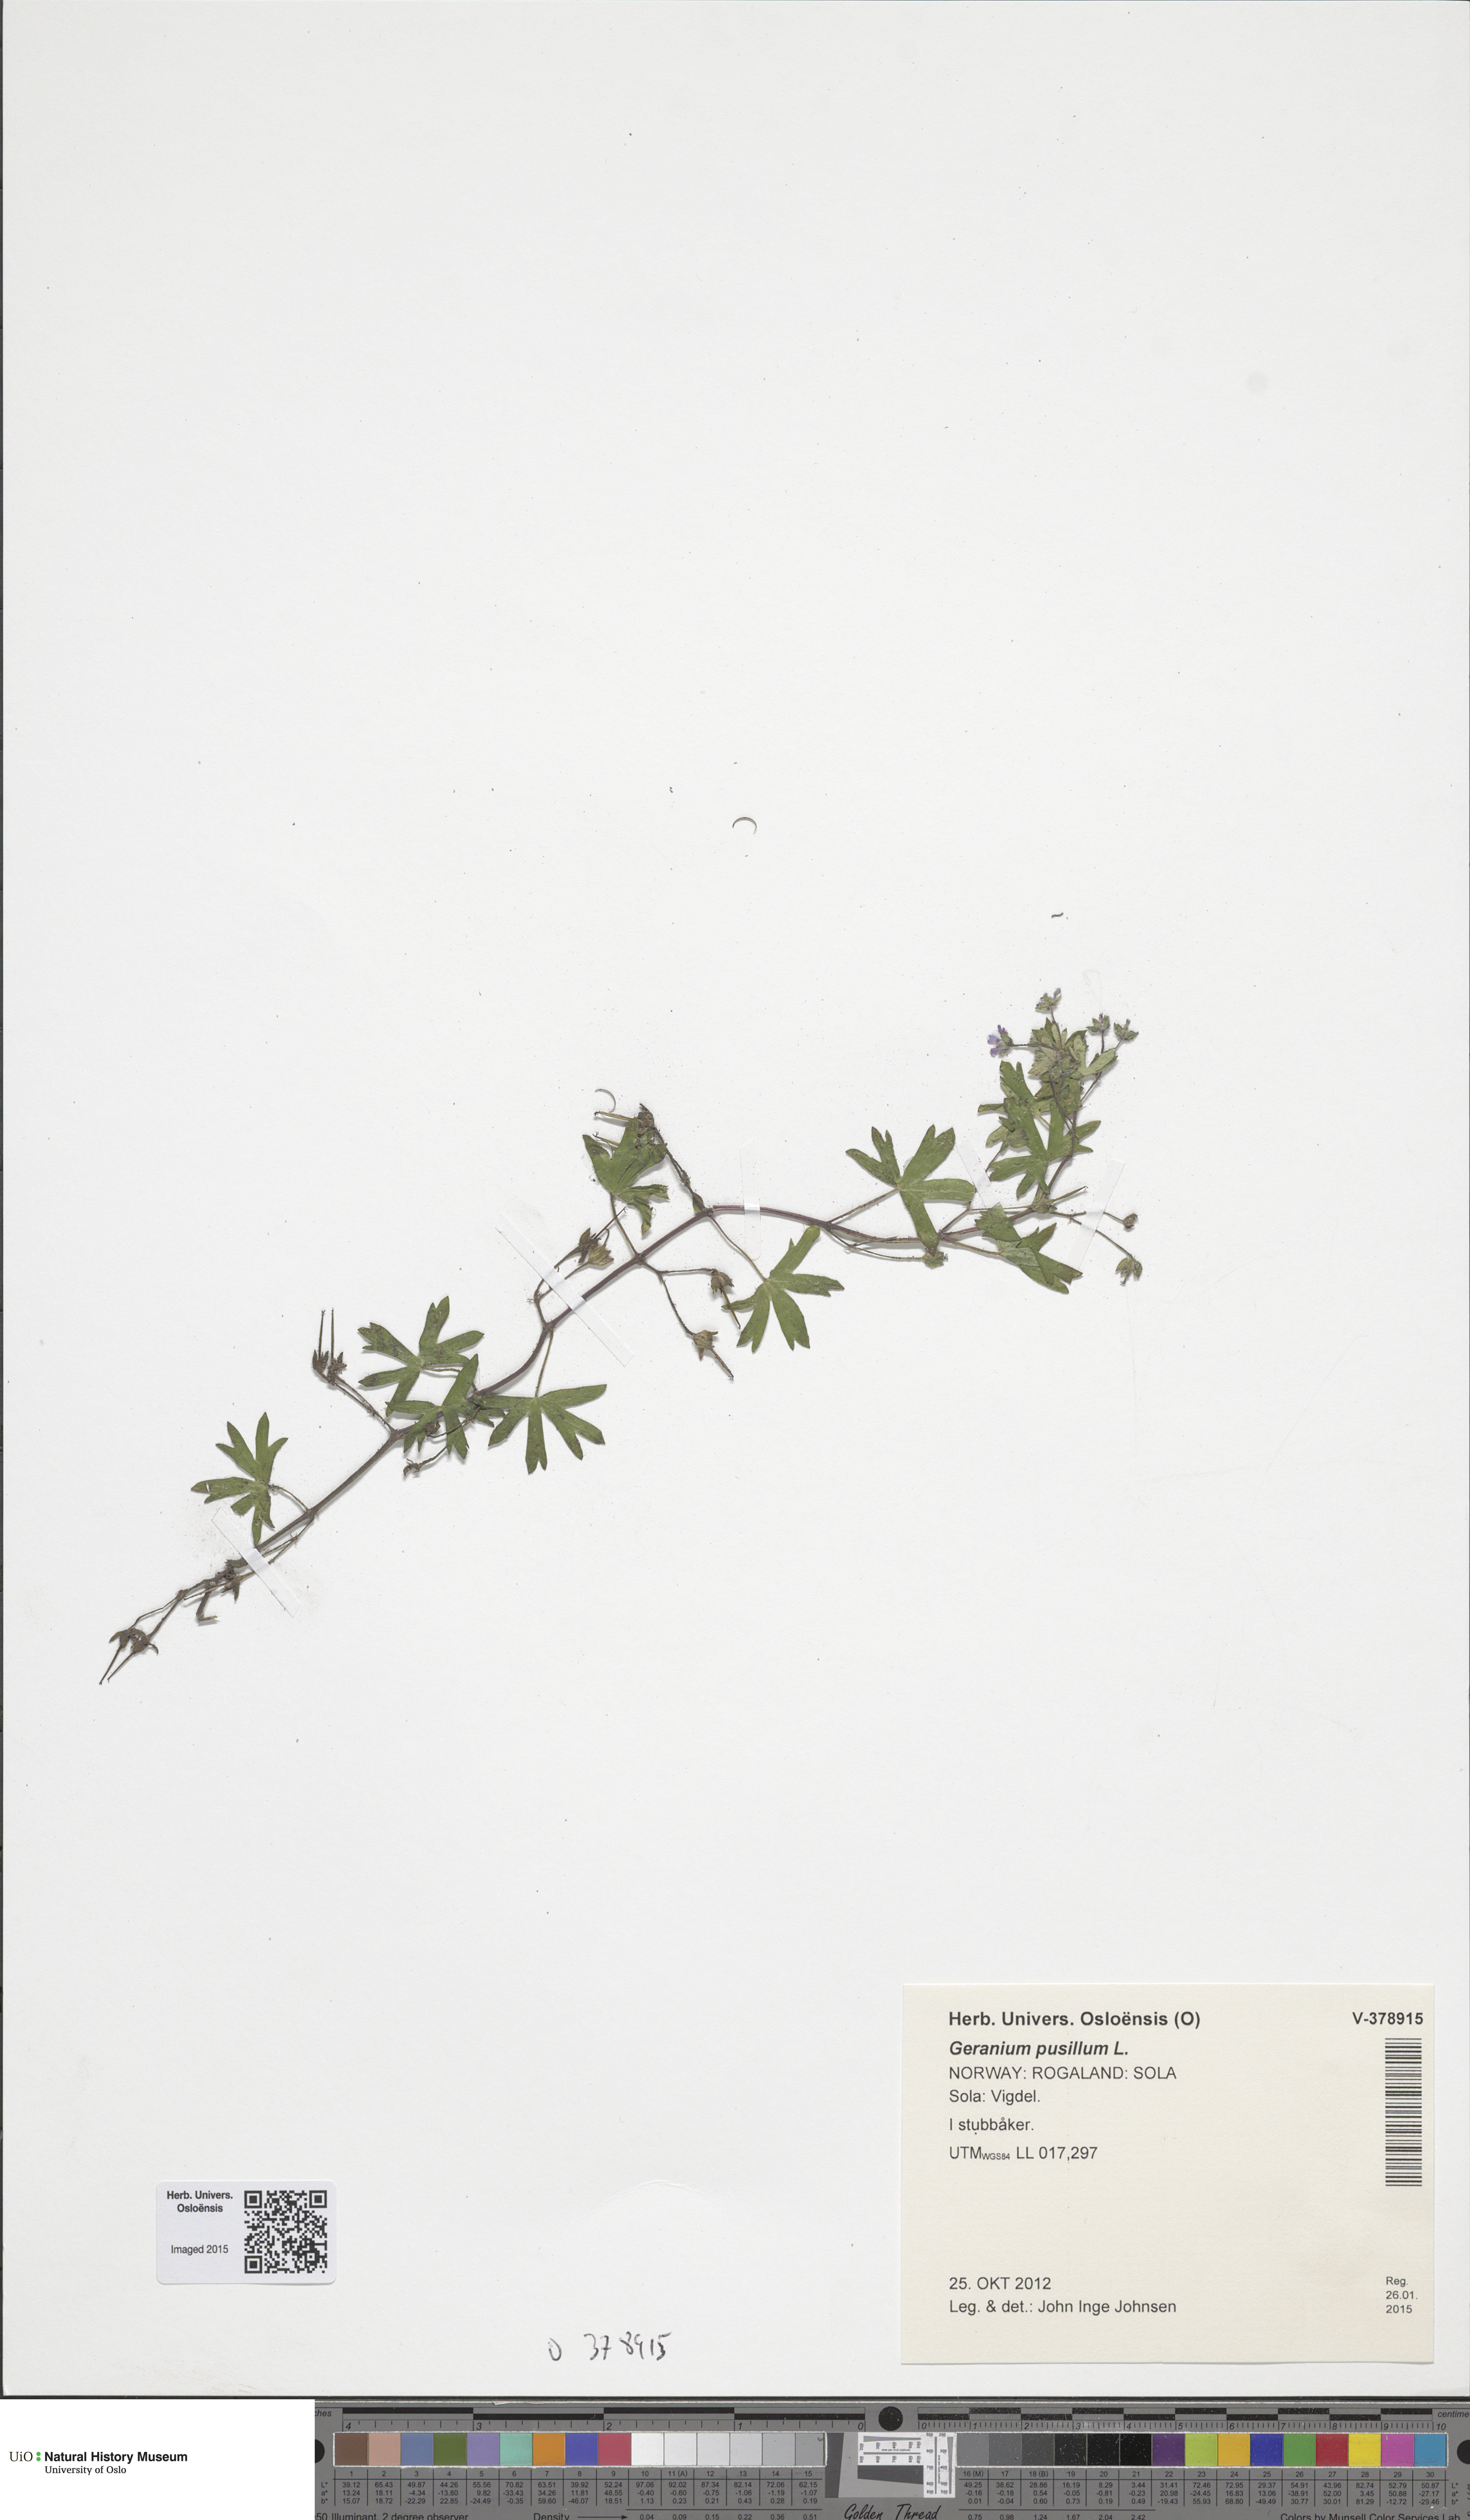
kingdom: Plantae
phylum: Tracheophyta
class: Magnoliopsida
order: Geraniales
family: Geraniaceae
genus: Geranium
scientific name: Geranium pusillum
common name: Small geranium
